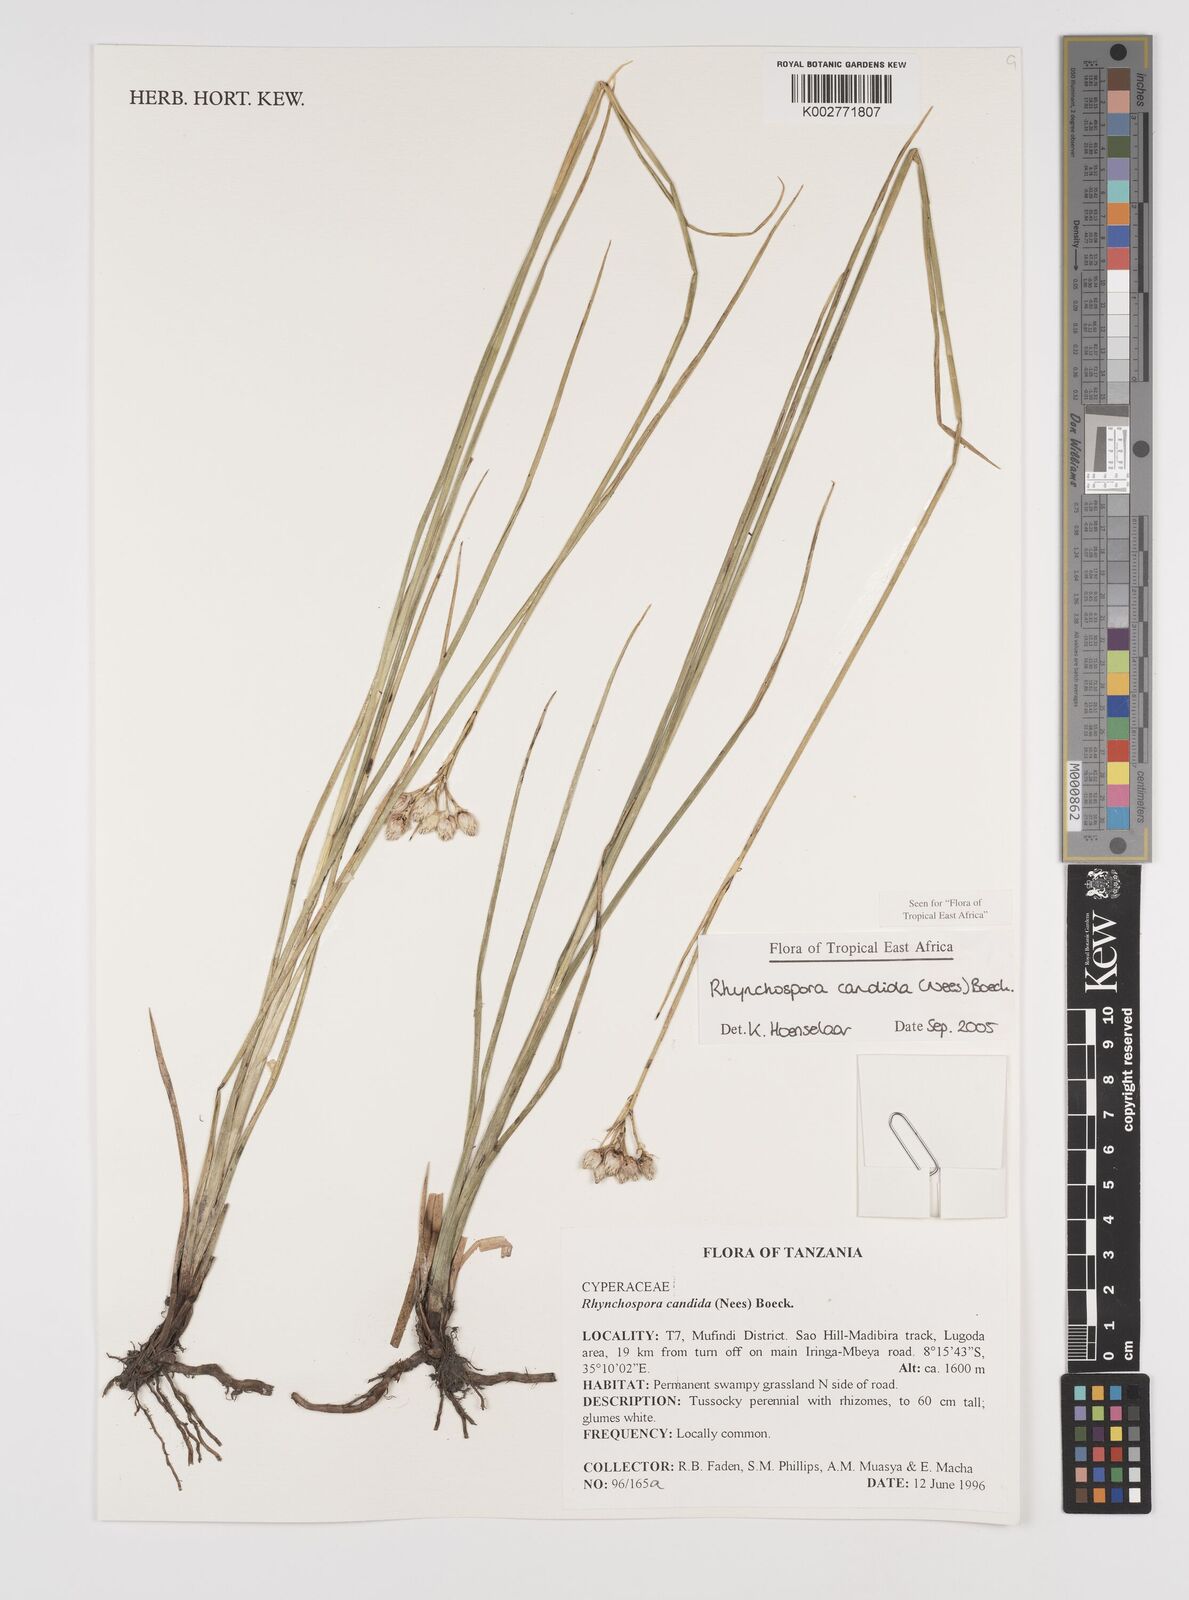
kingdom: Plantae
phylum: Tracheophyta
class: Liliopsida
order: Poales
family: Cyperaceae
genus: Rhynchospora
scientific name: Rhynchospora candida
